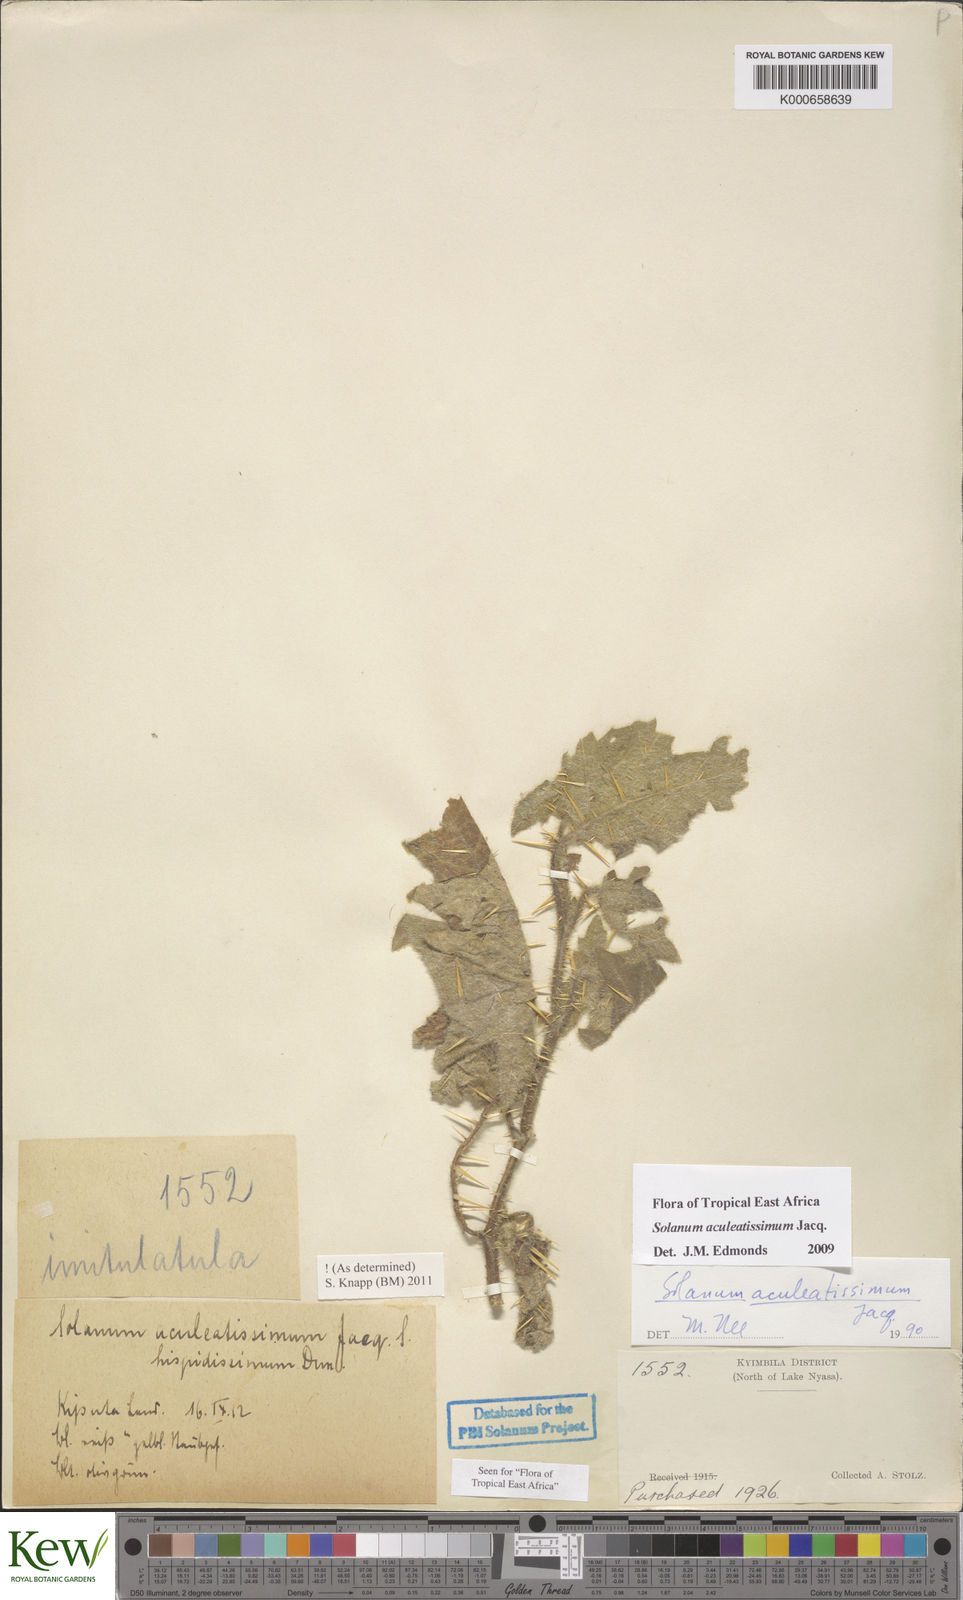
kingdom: Plantae
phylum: Tracheophyta
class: Magnoliopsida
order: Solanales
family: Solanaceae
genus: Solanum
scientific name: Solanum aculeatissimum
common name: Dutch eggplant
